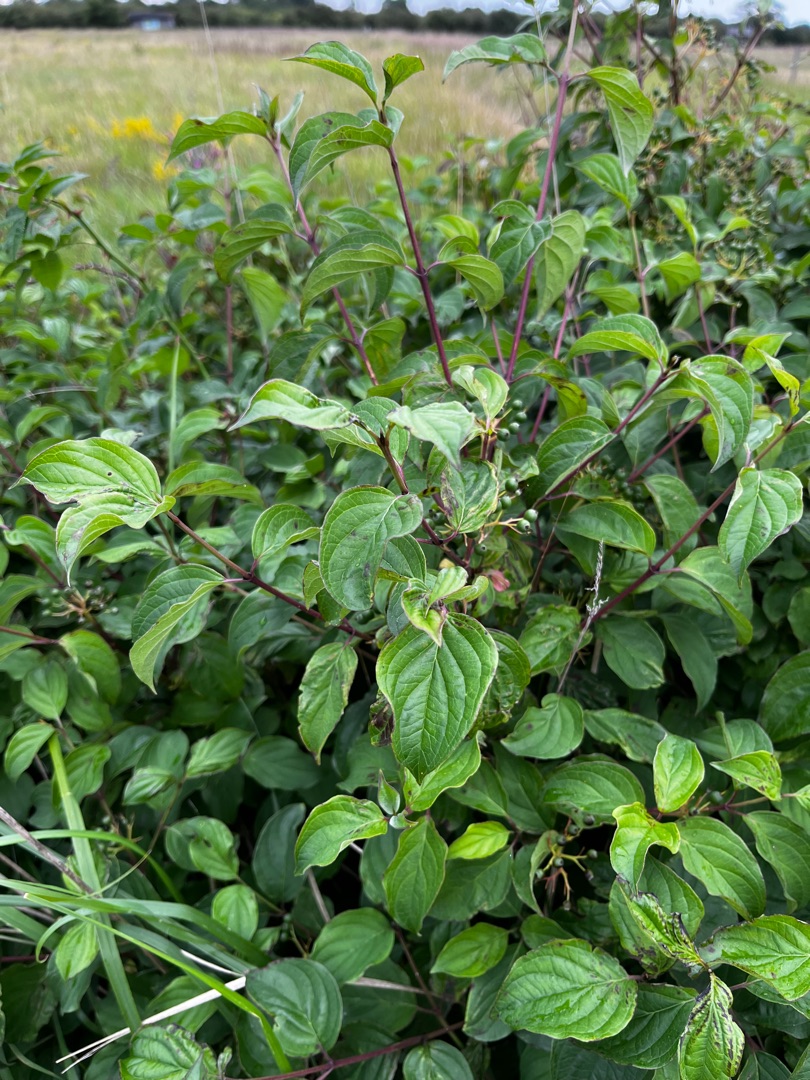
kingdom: Plantae
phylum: Tracheophyta
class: Magnoliopsida
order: Cornales
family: Cornaceae
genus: Cornus
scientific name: Cornus sanguinea
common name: Rød kornel
